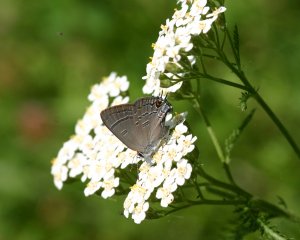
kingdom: Animalia
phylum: Arthropoda
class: Insecta
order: Lepidoptera
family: Lycaenidae
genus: Satyrium
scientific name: Satyrium calanus
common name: Banded Hairstreak
